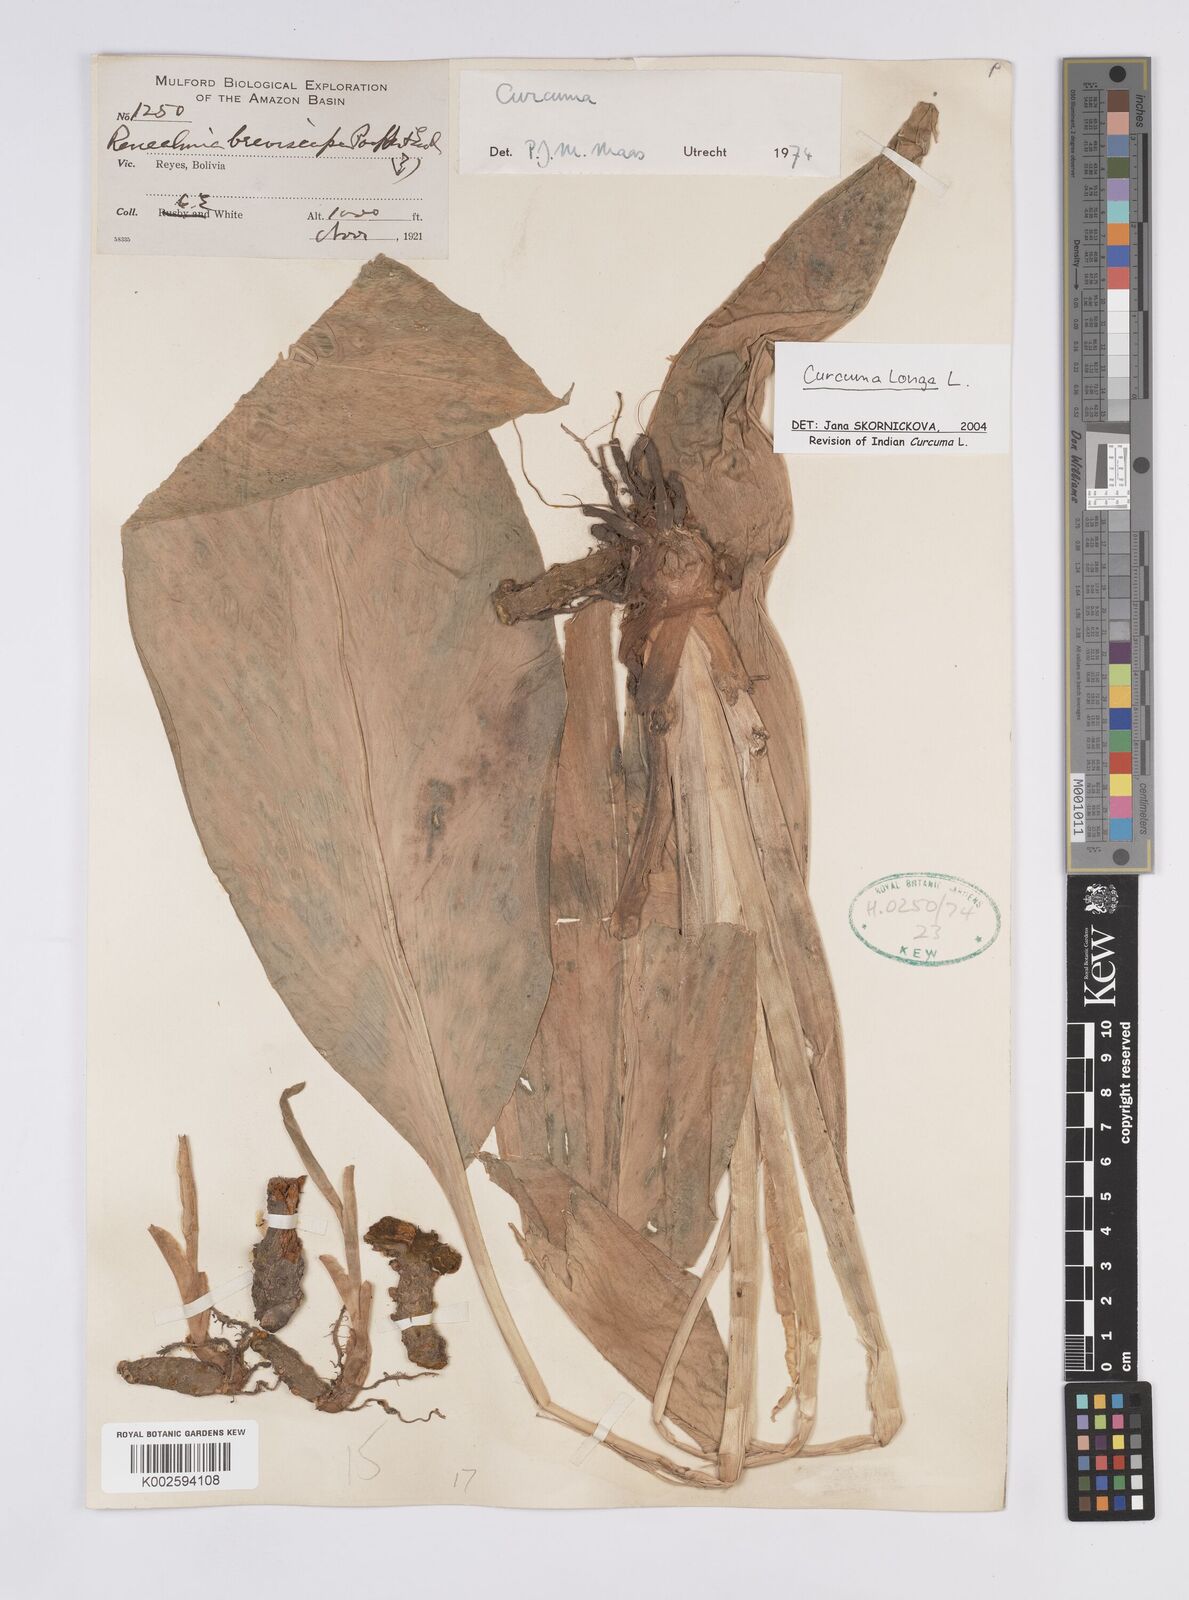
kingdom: Plantae
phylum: Tracheophyta
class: Liliopsida
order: Zingiberales
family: Zingiberaceae
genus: Curcuma
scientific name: Curcuma longa
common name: Turmeric
